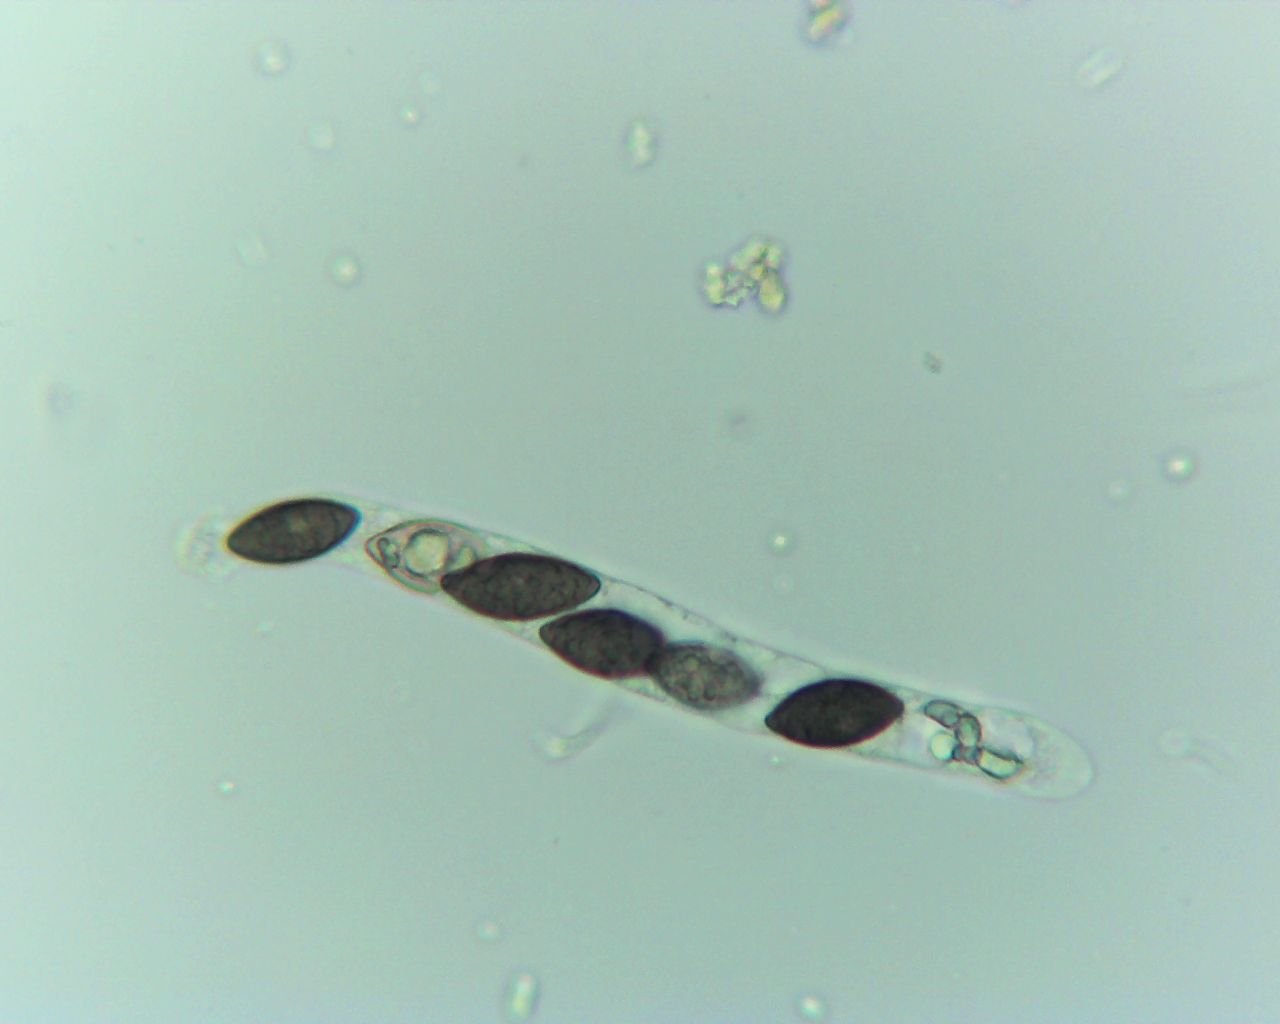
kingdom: Fungi
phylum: Ascomycota
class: Sordariomycetes
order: Xylariales
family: Xylariaceae
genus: Digitodochium
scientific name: Digitodochium amoenum
